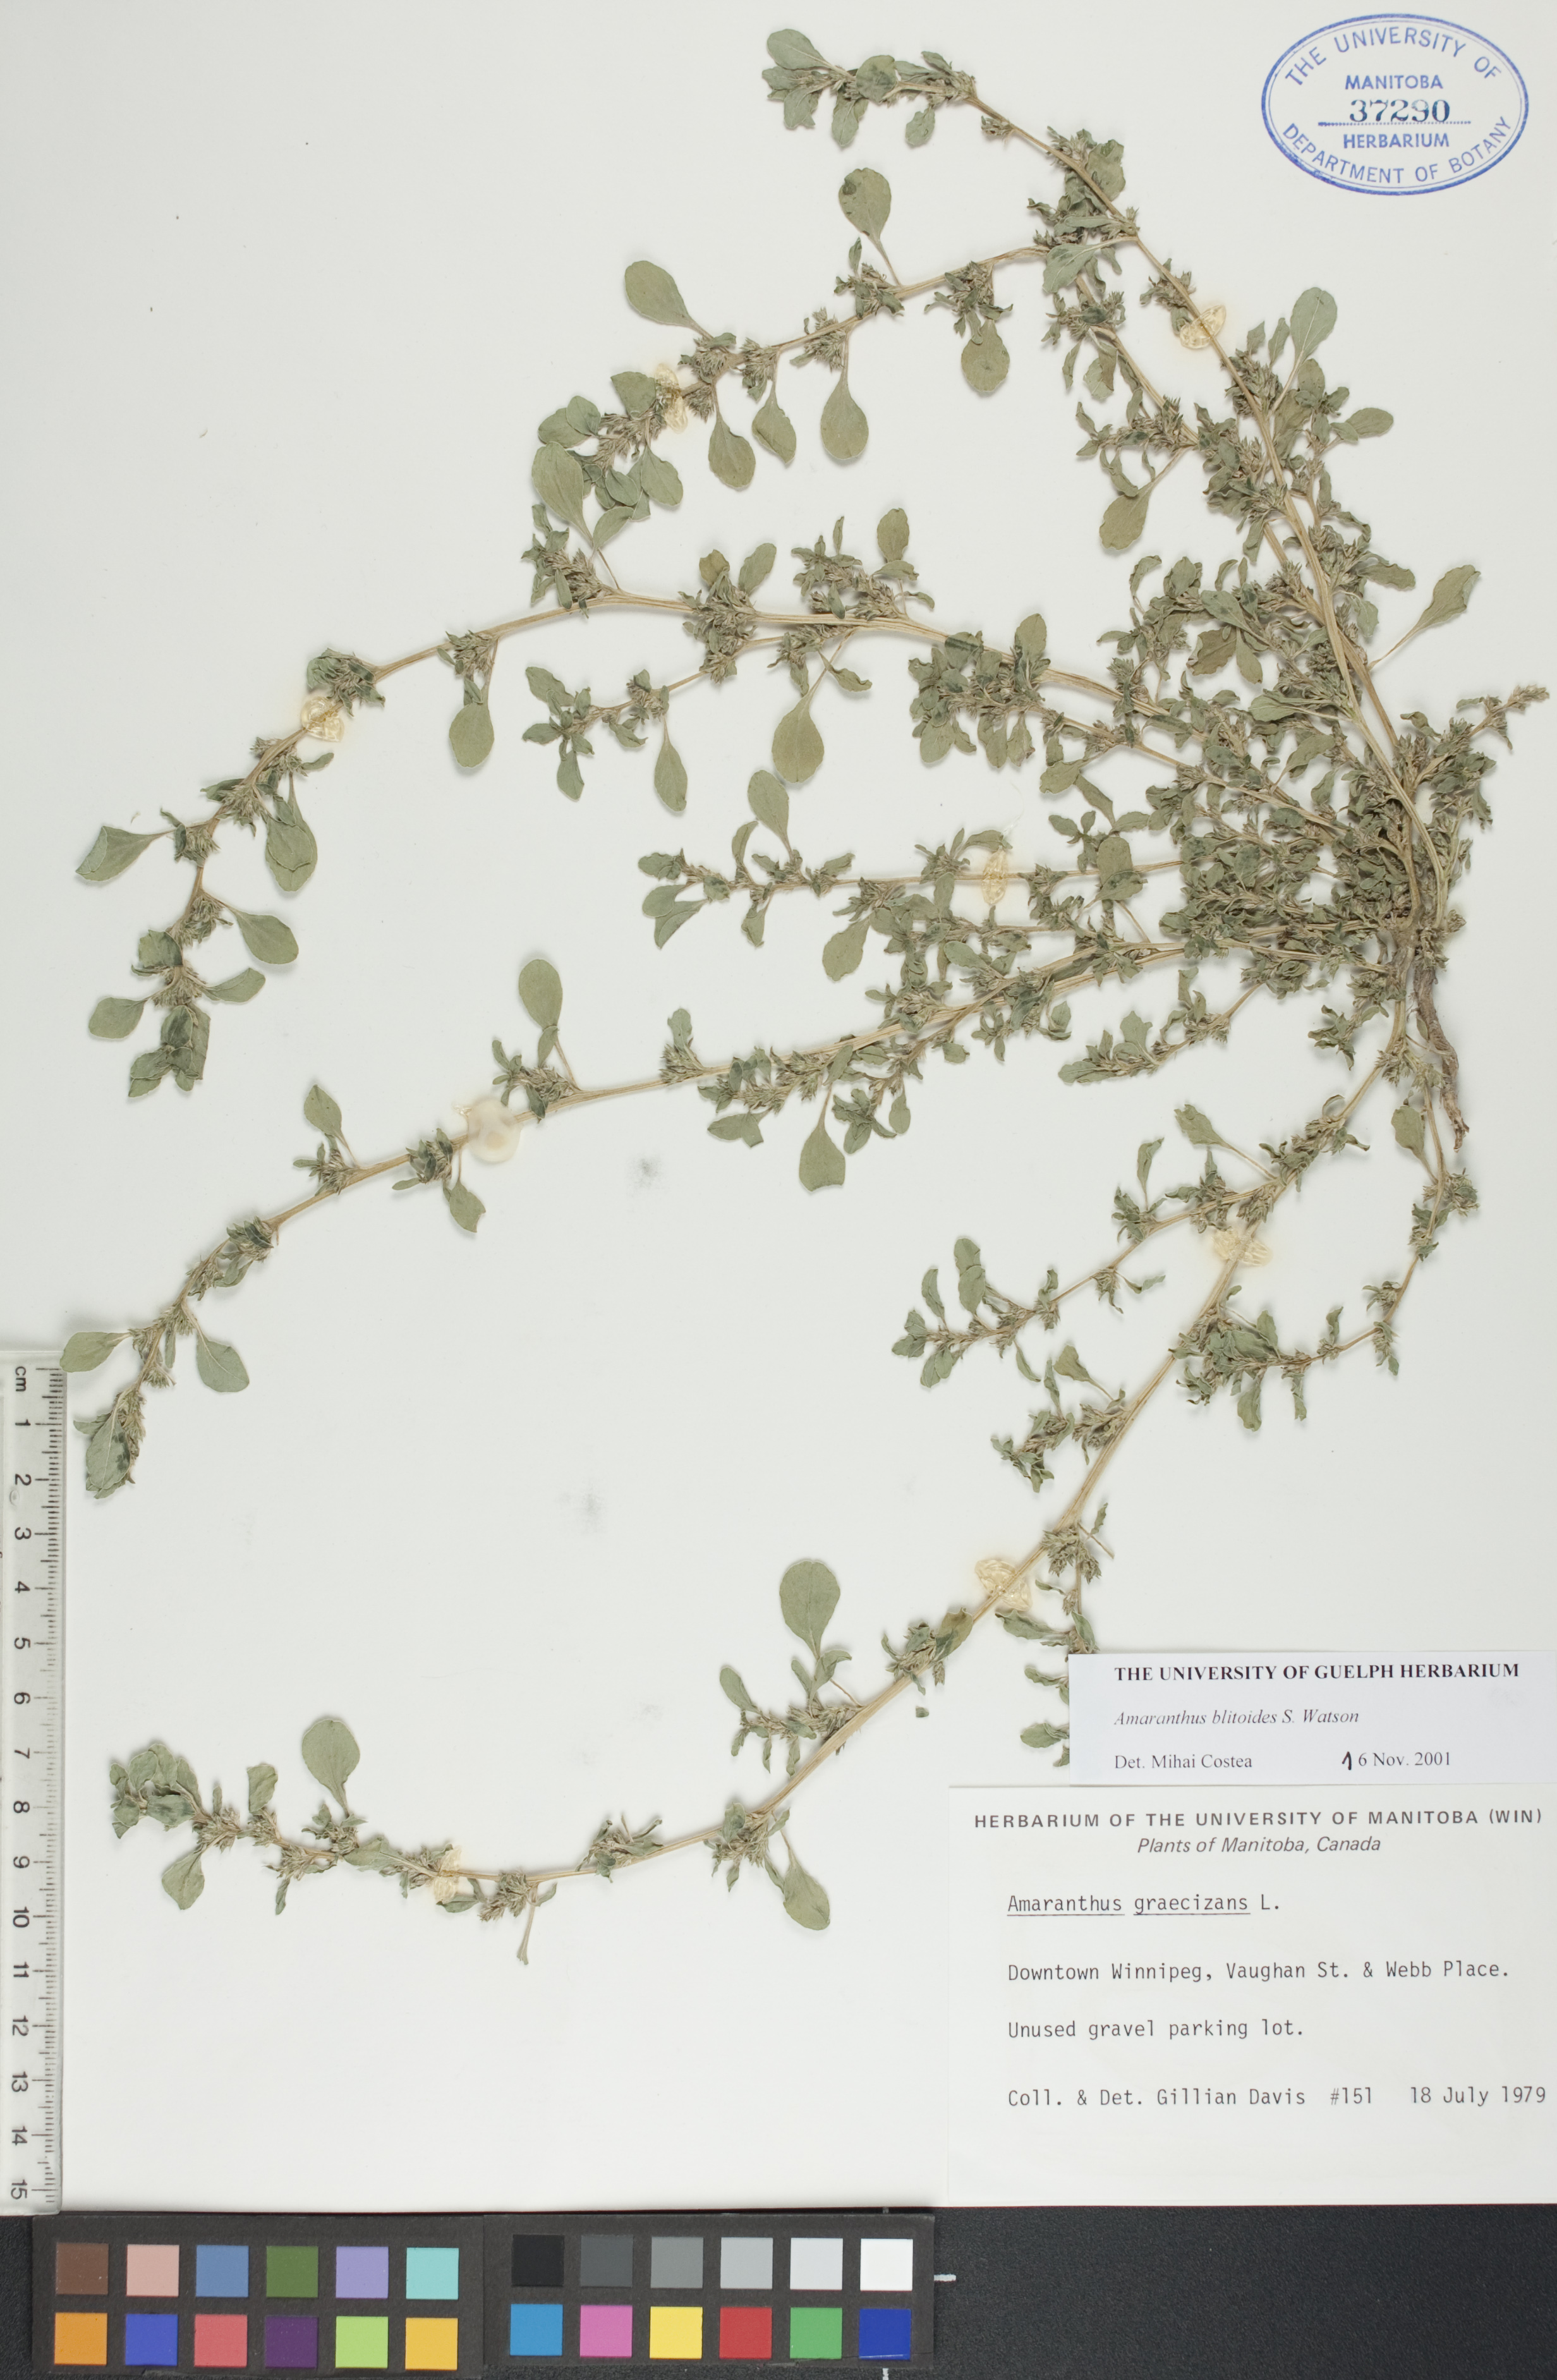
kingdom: Plantae
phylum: Tracheophyta
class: Magnoliopsida
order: Caryophyllales
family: Amaranthaceae
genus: Amaranthus
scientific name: Amaranthus blitoides
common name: Prostrate pigweed
